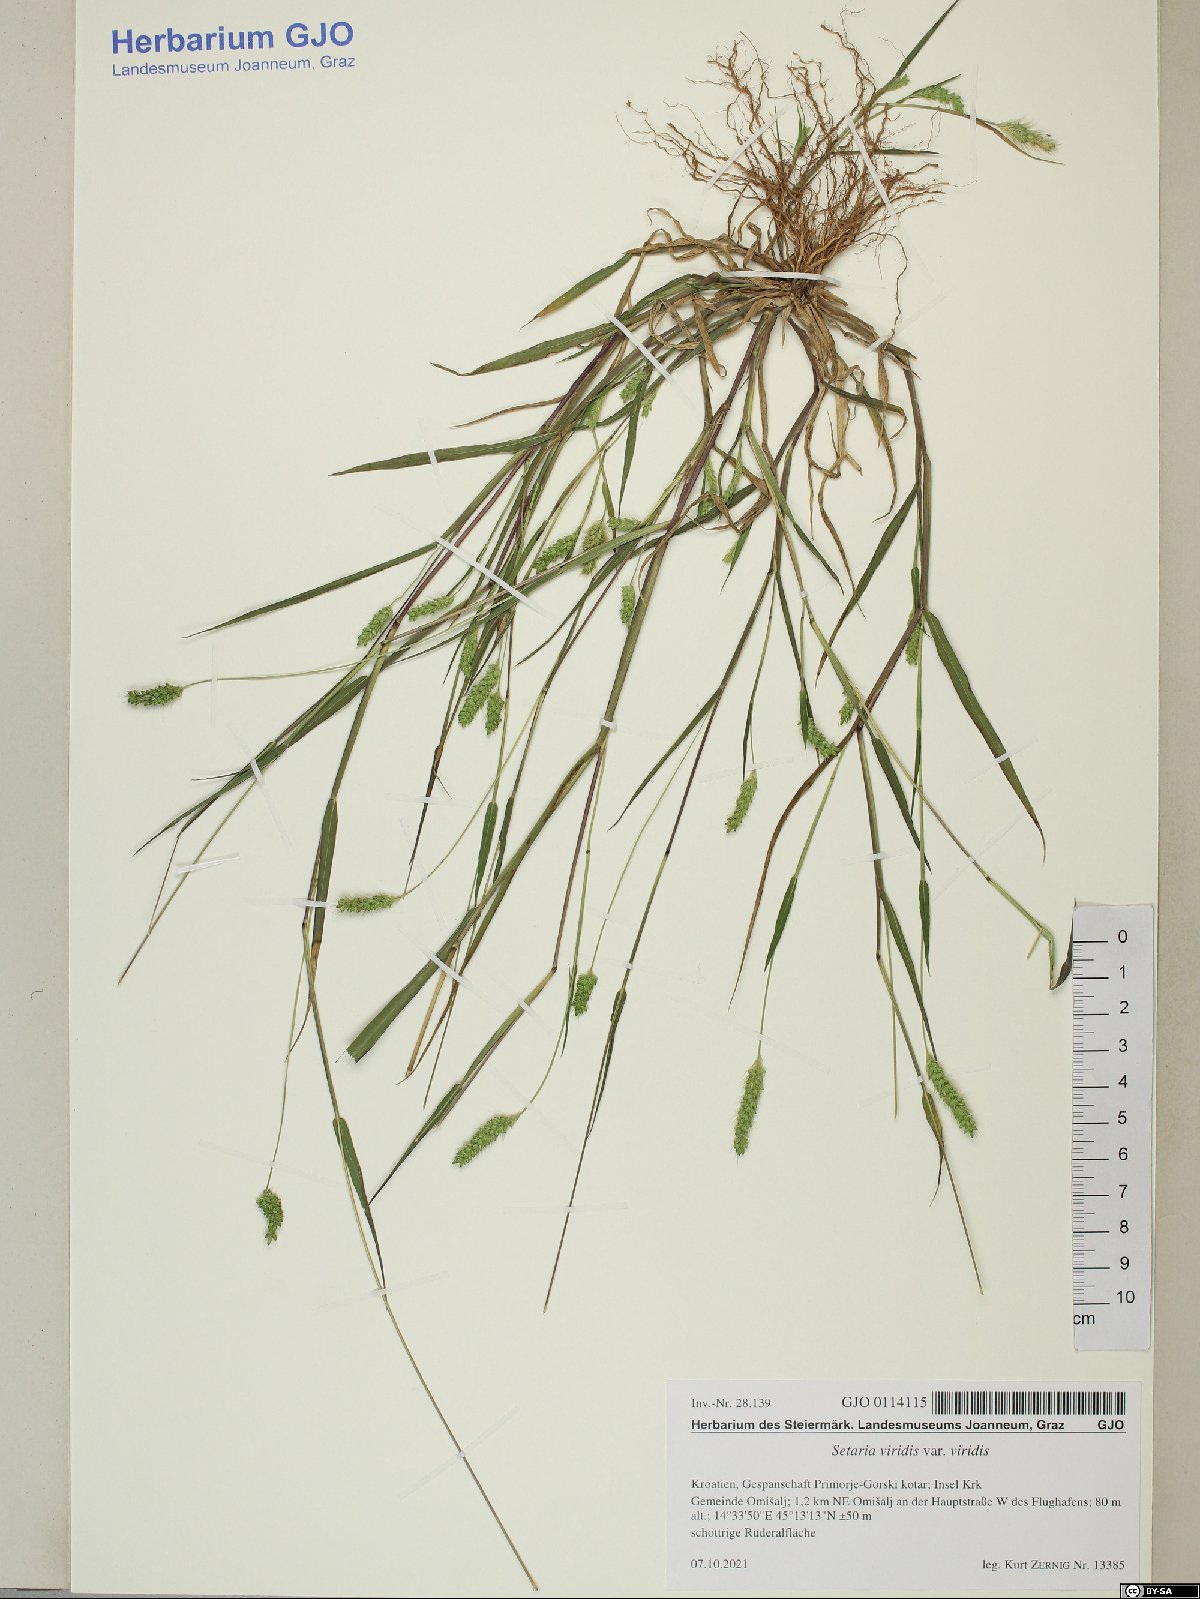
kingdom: Plantae
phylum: Tracheophyta
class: Liliopsida
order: Poales
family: Poaceae
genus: Setaria
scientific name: Setaria viridis
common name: Green bristlegrass
